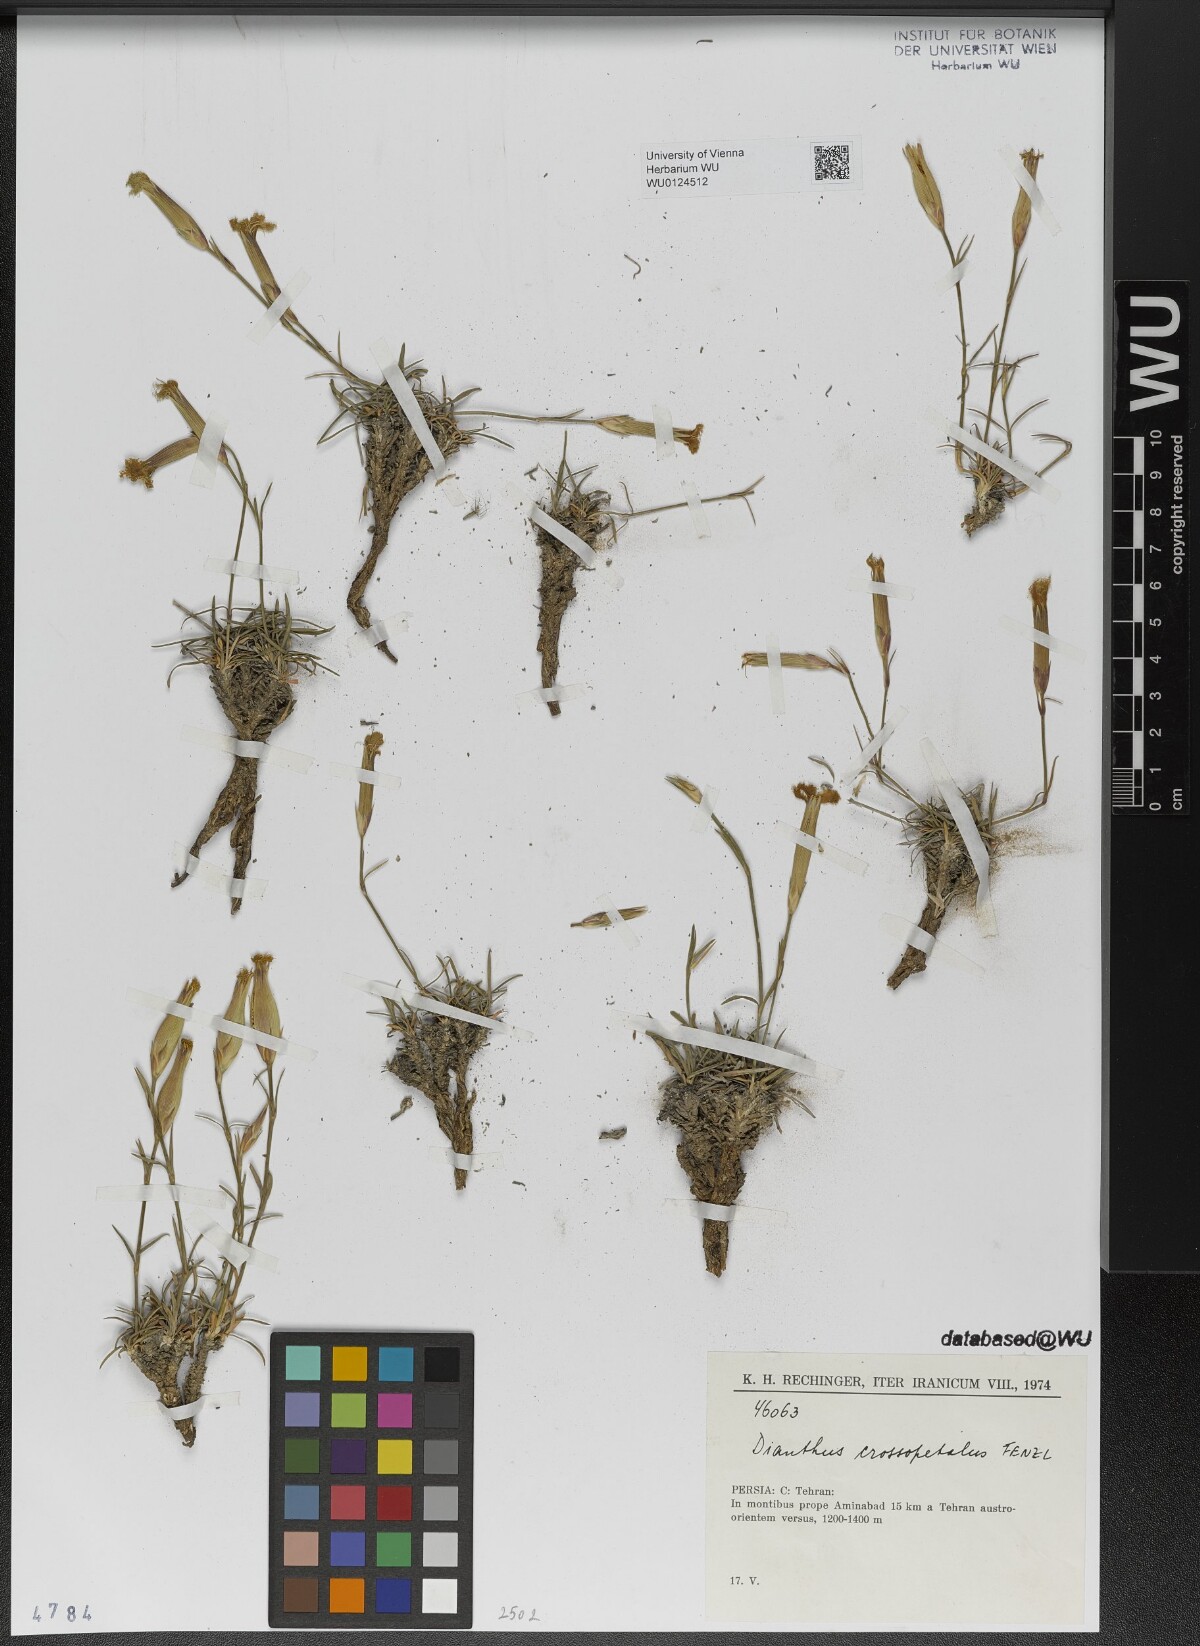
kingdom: Plantae
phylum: Tracheophyta
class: Magnoliopsida
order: Caryophyllales
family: Caryophyllaceae
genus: Dianthus
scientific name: Dianthus crossopetalus
